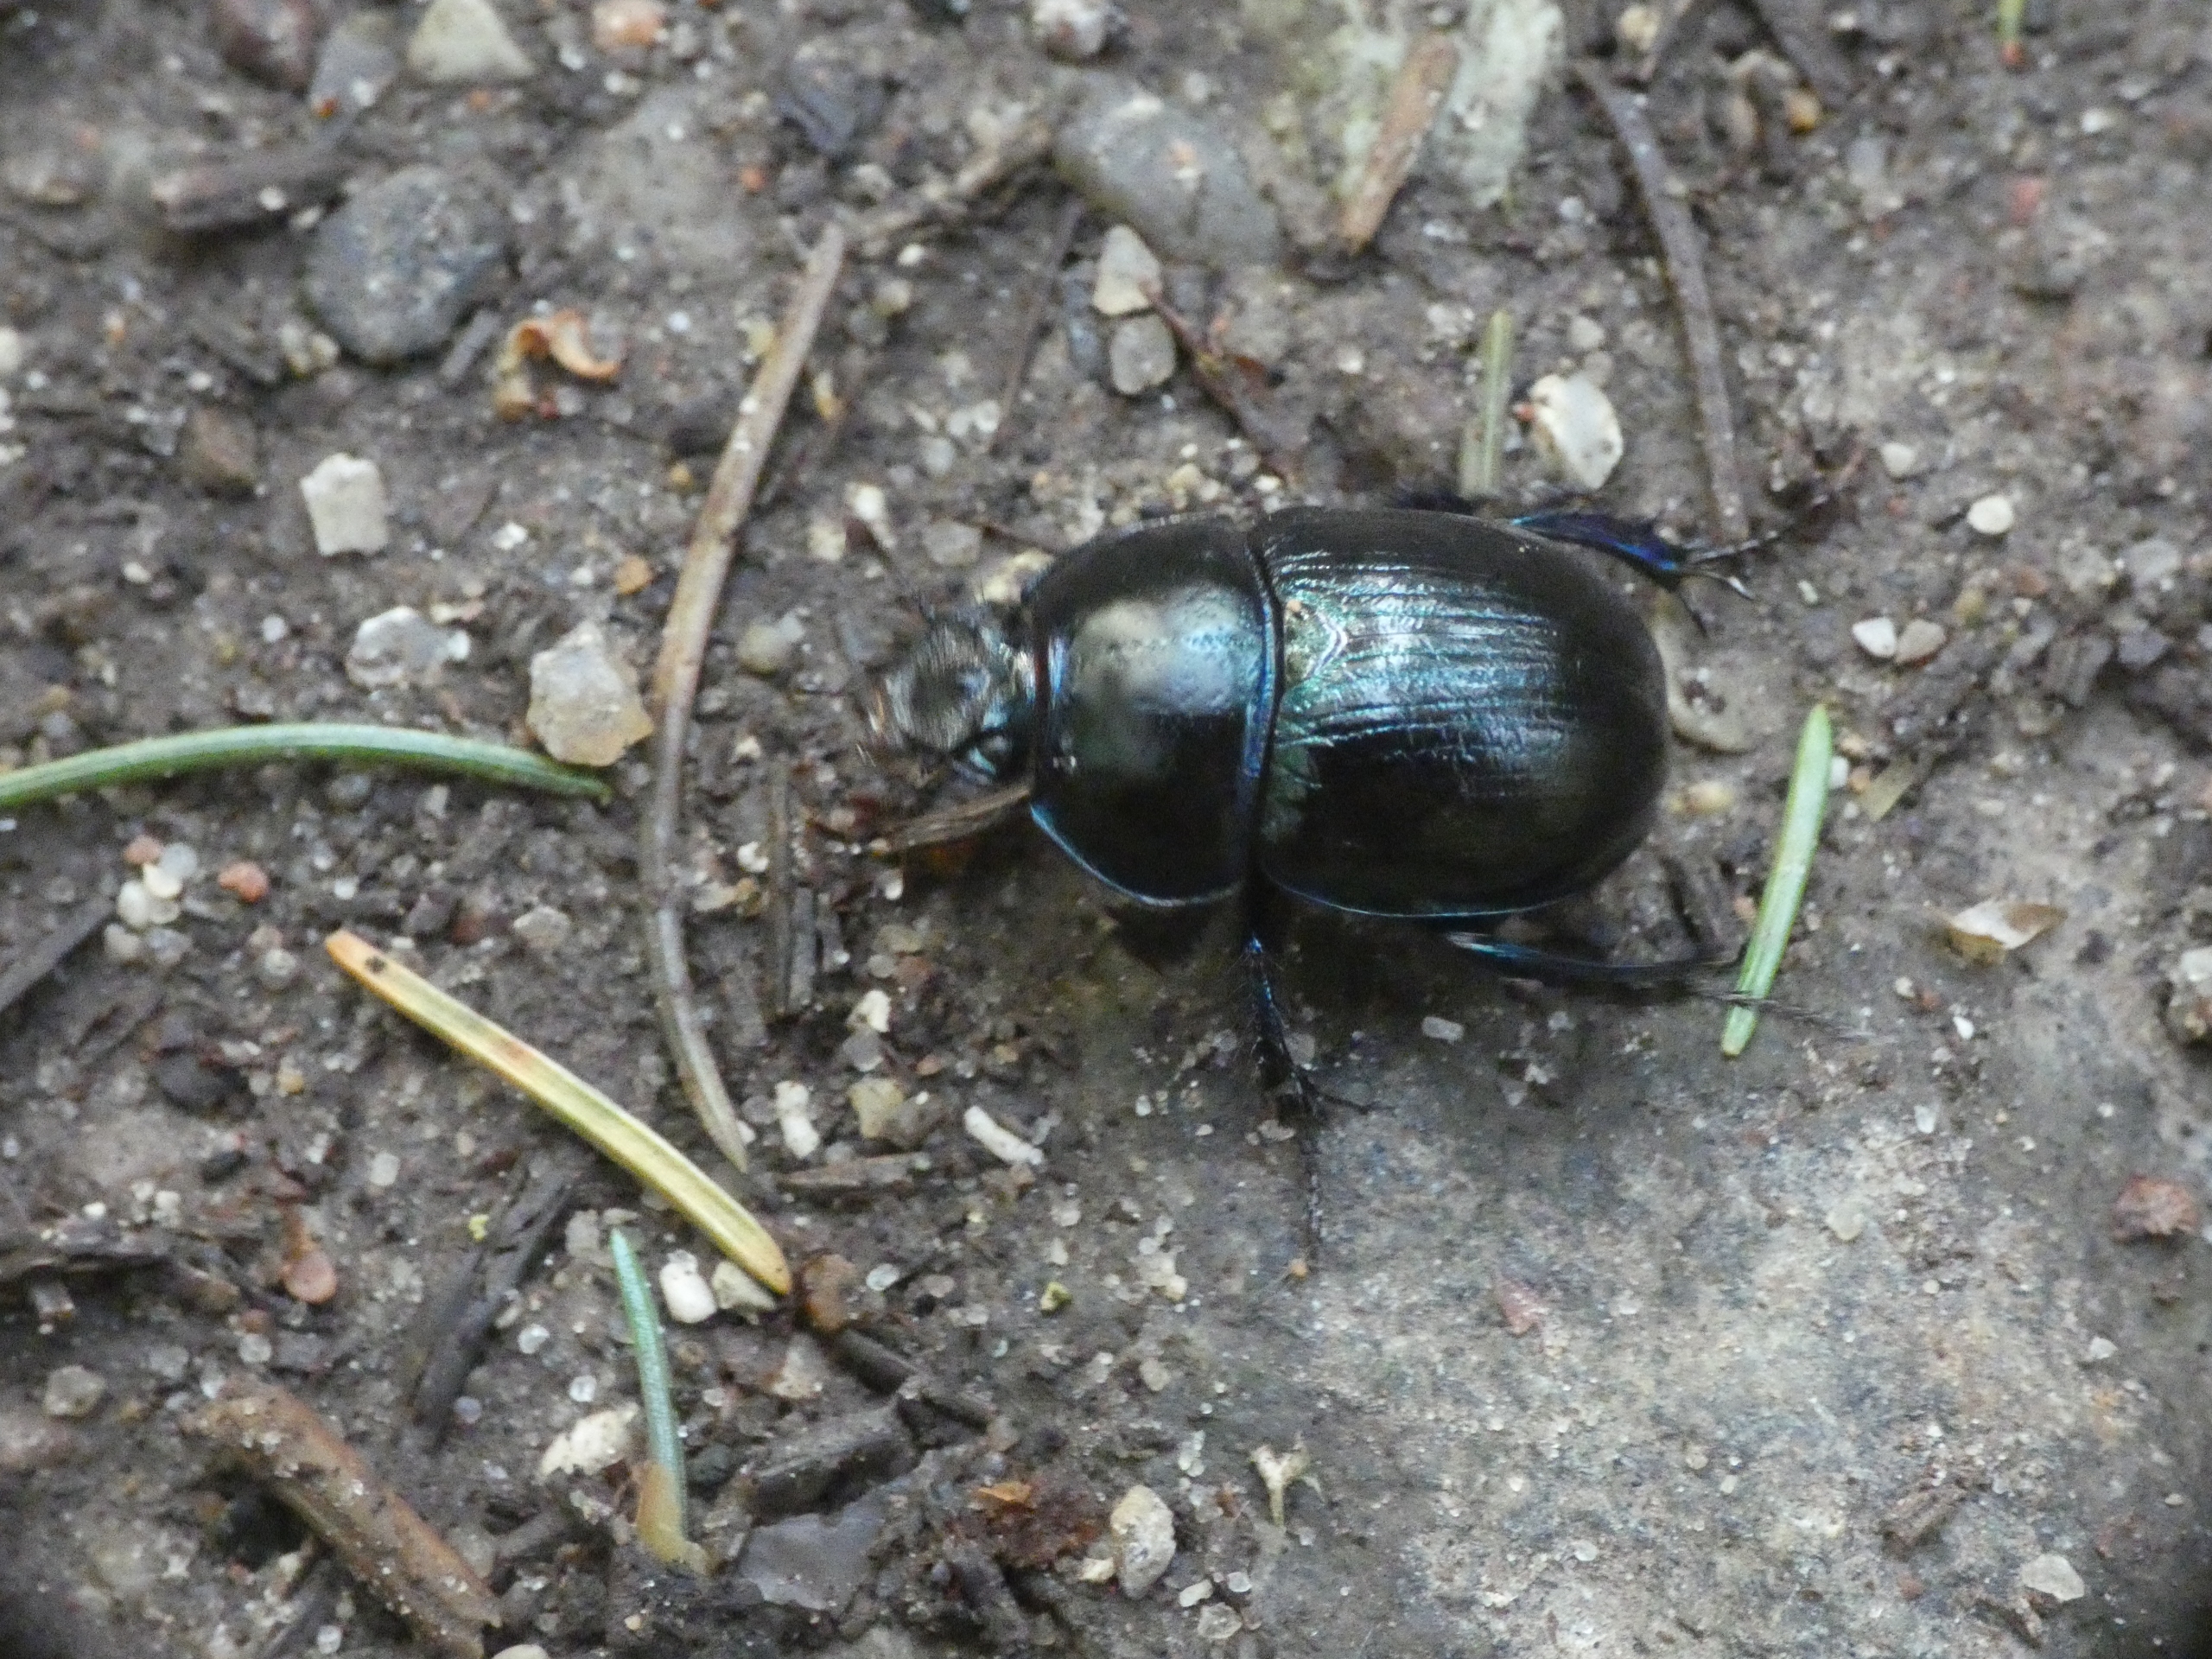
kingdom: Animalia
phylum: Arthropoda
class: Insecta
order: Coleoptera
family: Geotrupidae
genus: Anoplotrupes
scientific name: Anoplotrupes stercorosus
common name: Skovskarnbasse
